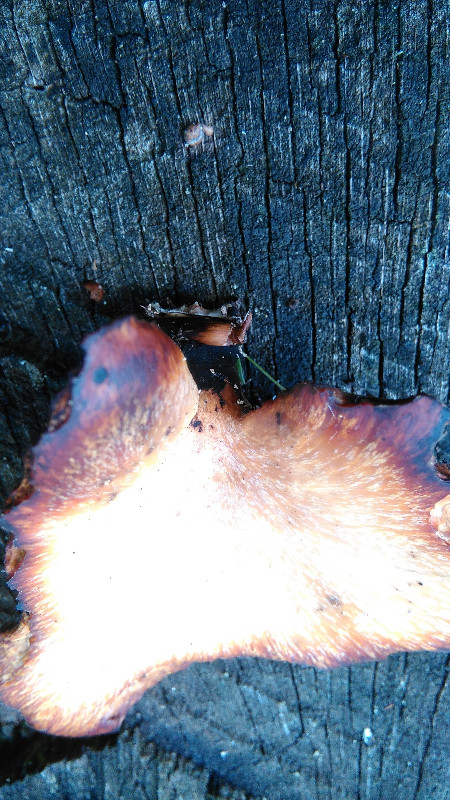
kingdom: Fungi
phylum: Basidiomycota
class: Agaricomycetes
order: Polyporales
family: Polyporaceae
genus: Cerioporus
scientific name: Cerioporus varius
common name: foranderlig stilkporesvamp
